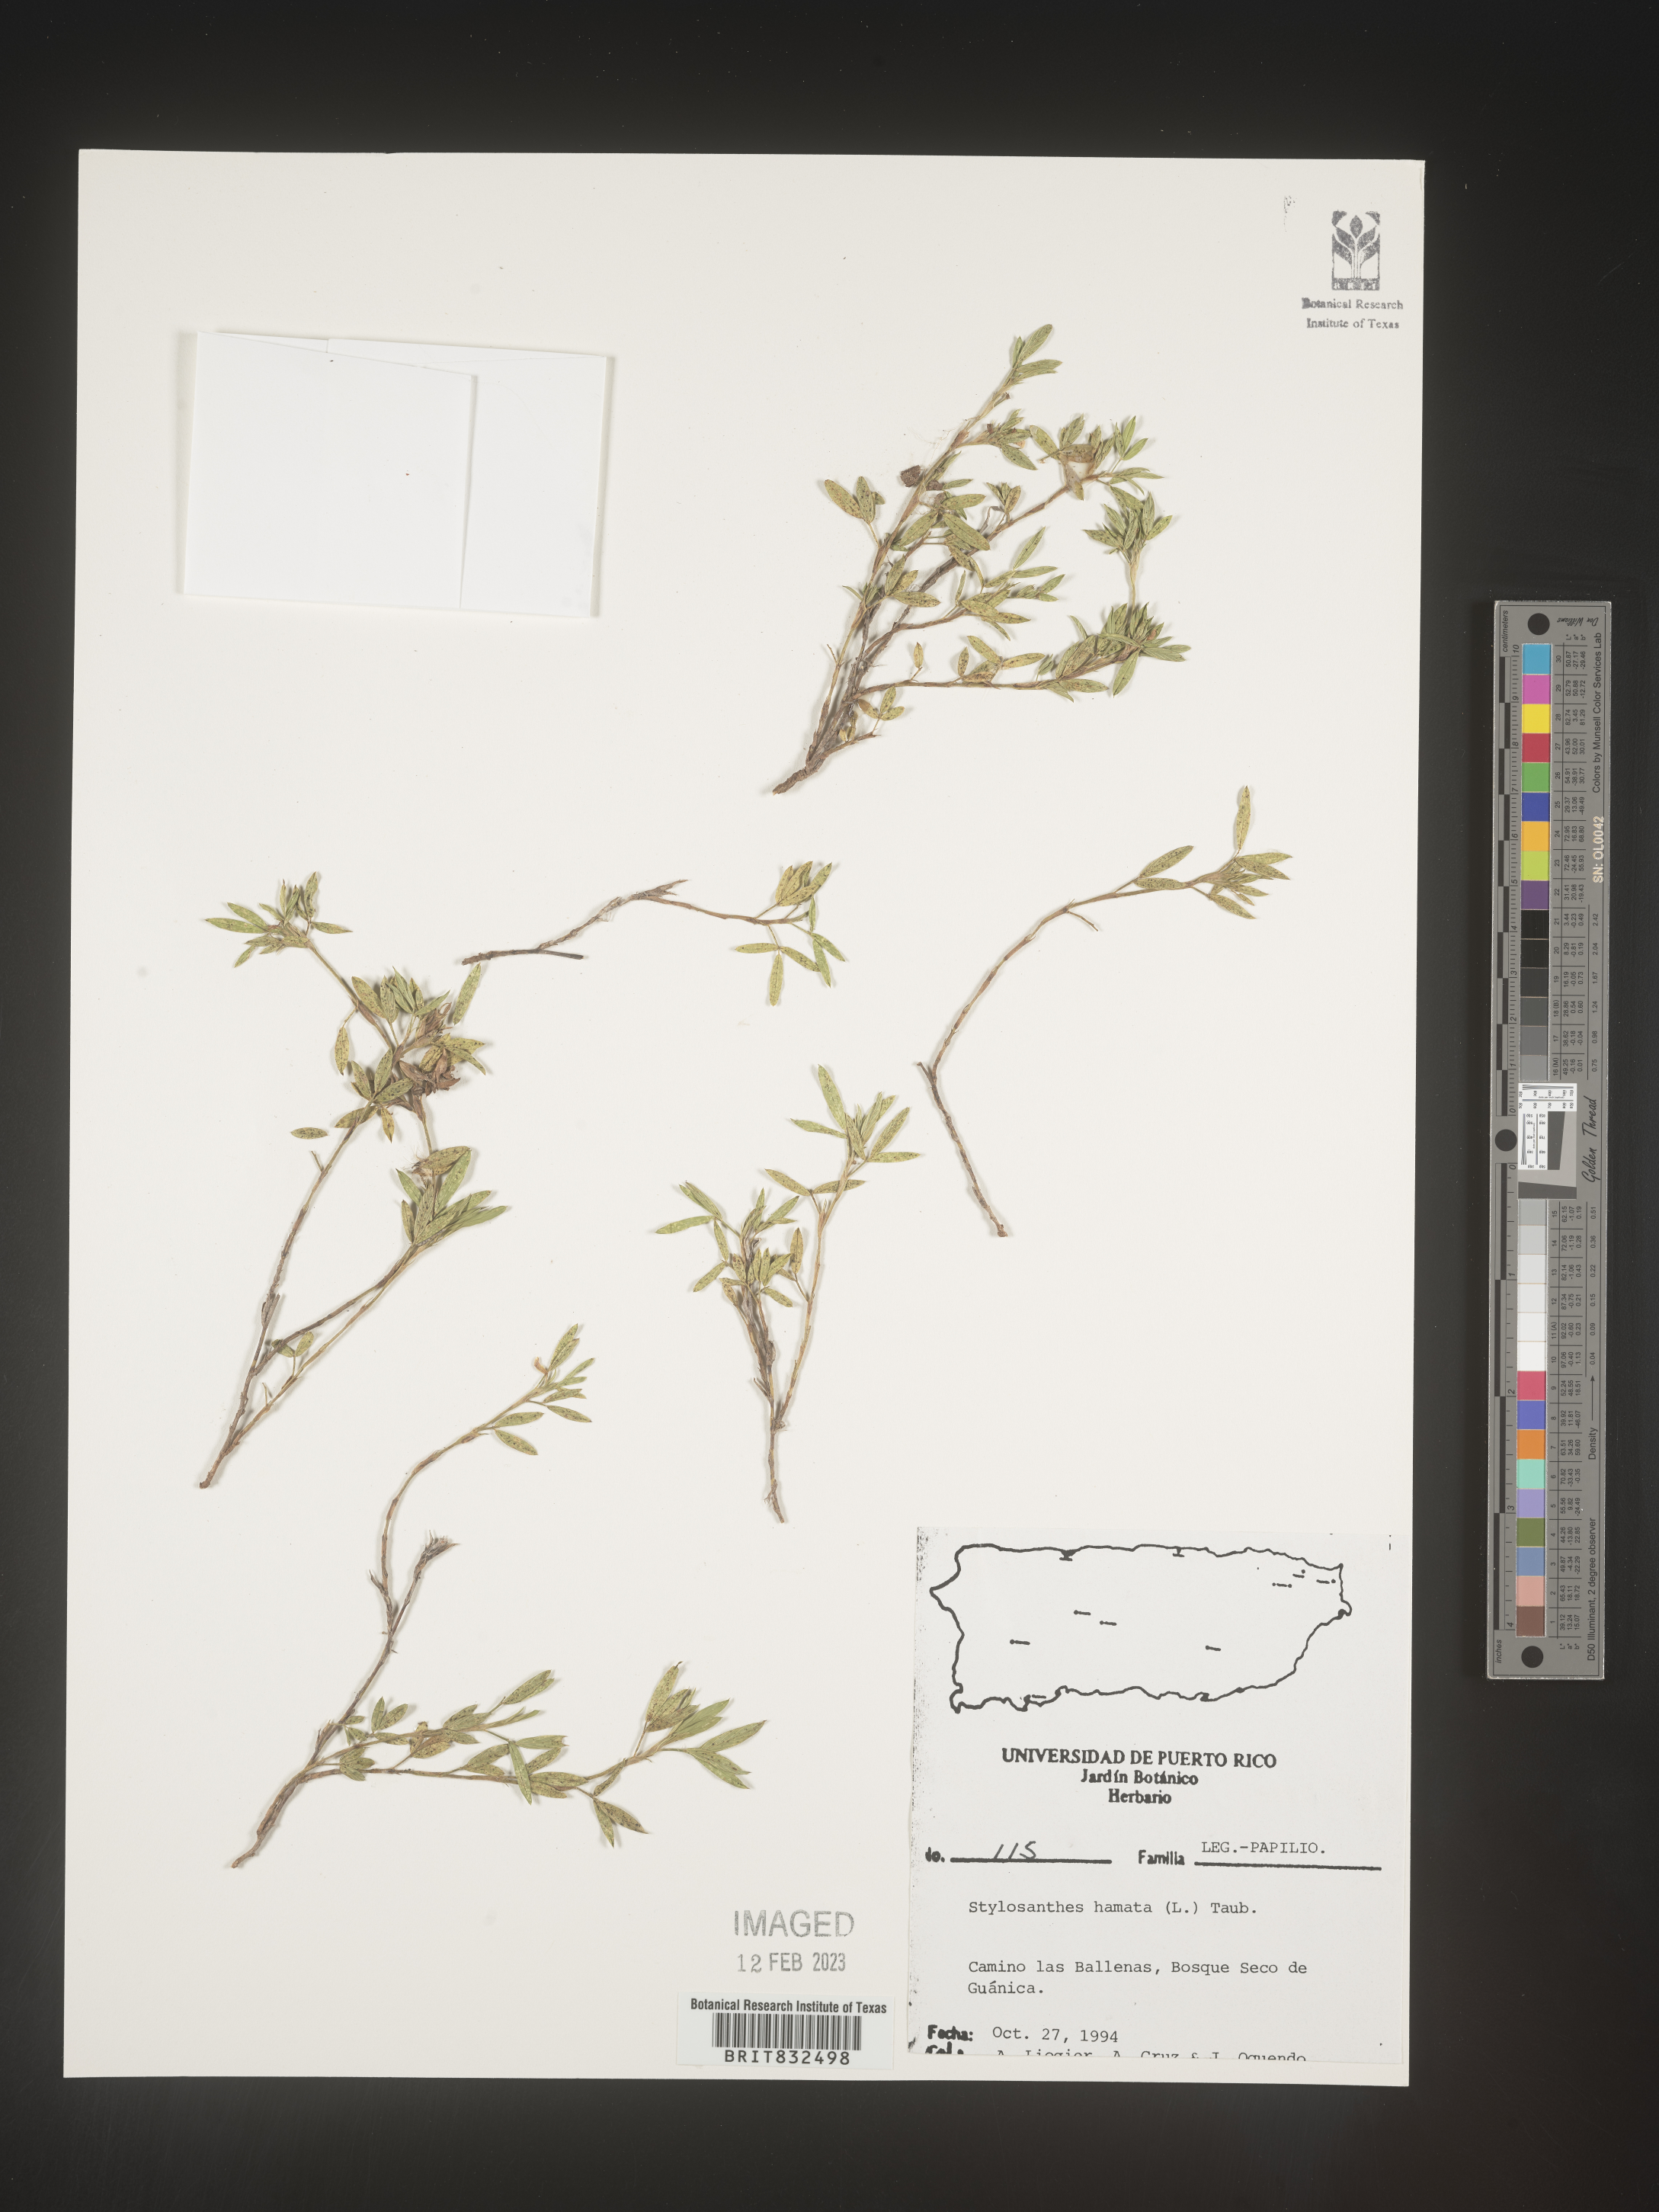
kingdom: Plantae
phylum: Tracheophyta
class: Magnoliopsida
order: Fabales
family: Fabaceae
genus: Stylosanthes
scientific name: Stylosanthes
